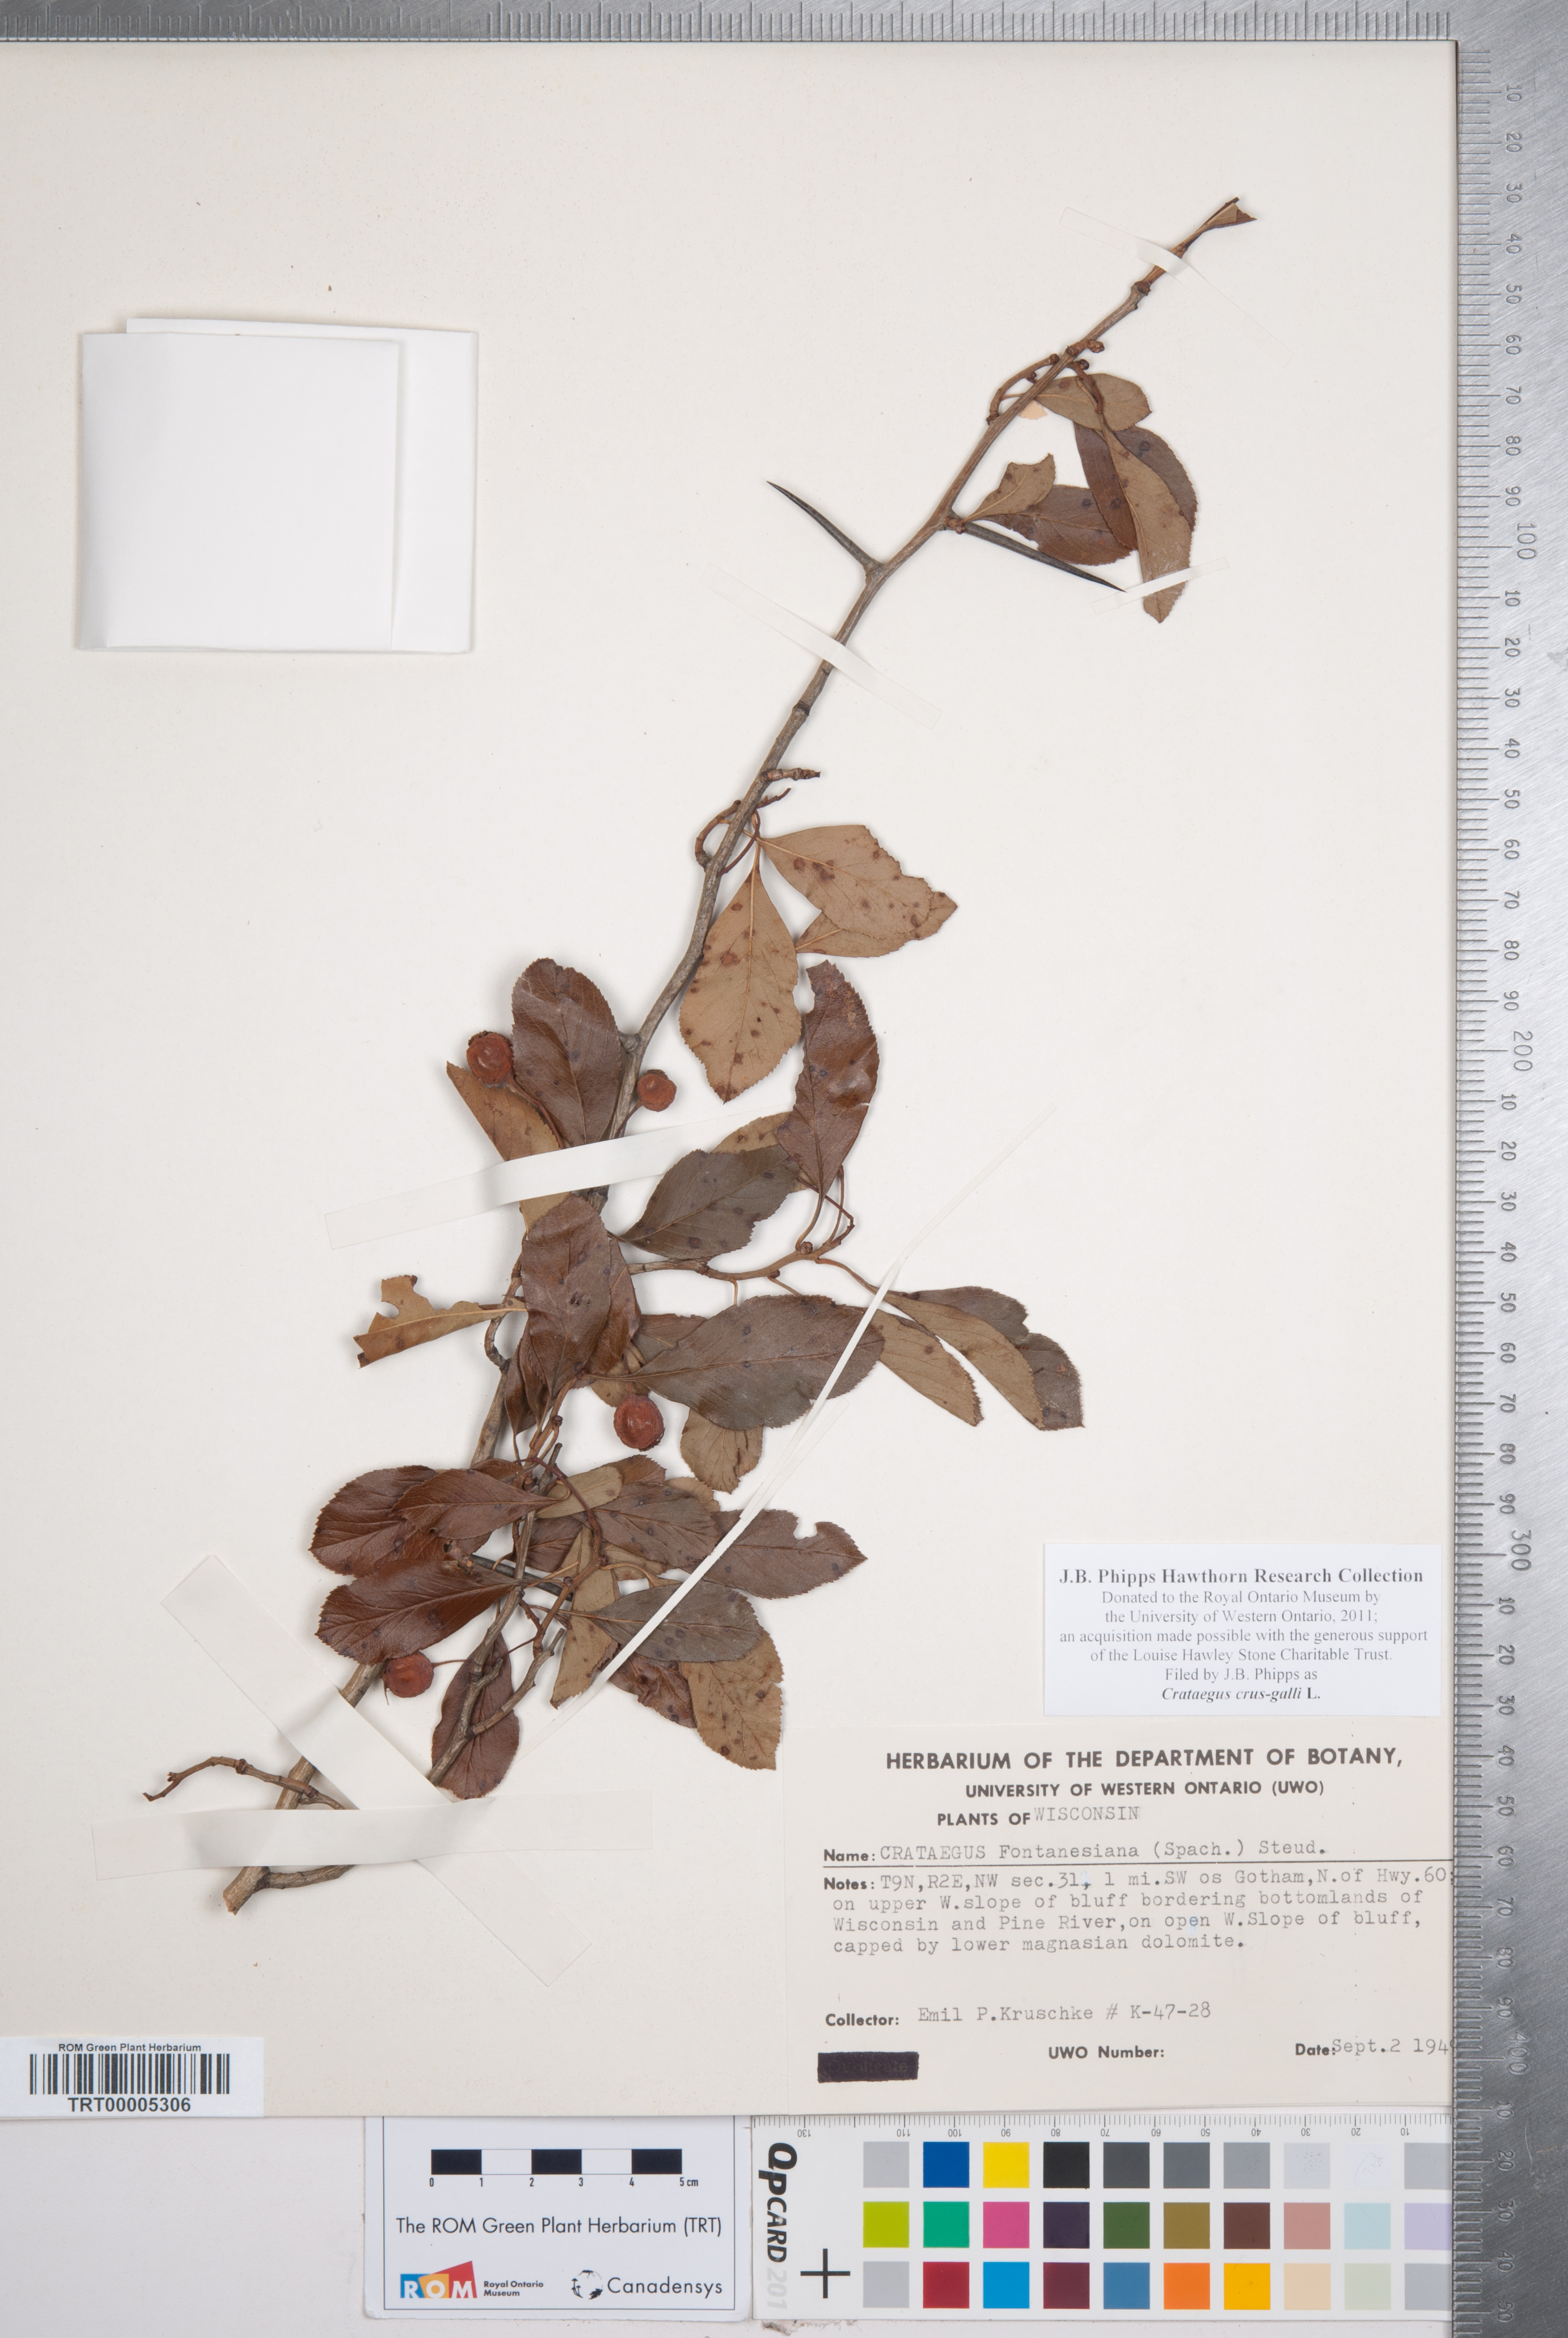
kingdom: Plantae
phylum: Tracheophyta
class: Magnoliopsida
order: Rosales
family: Rosaceae
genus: Crataegus
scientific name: Crataegus crus-galli
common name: Cockspurthorn
